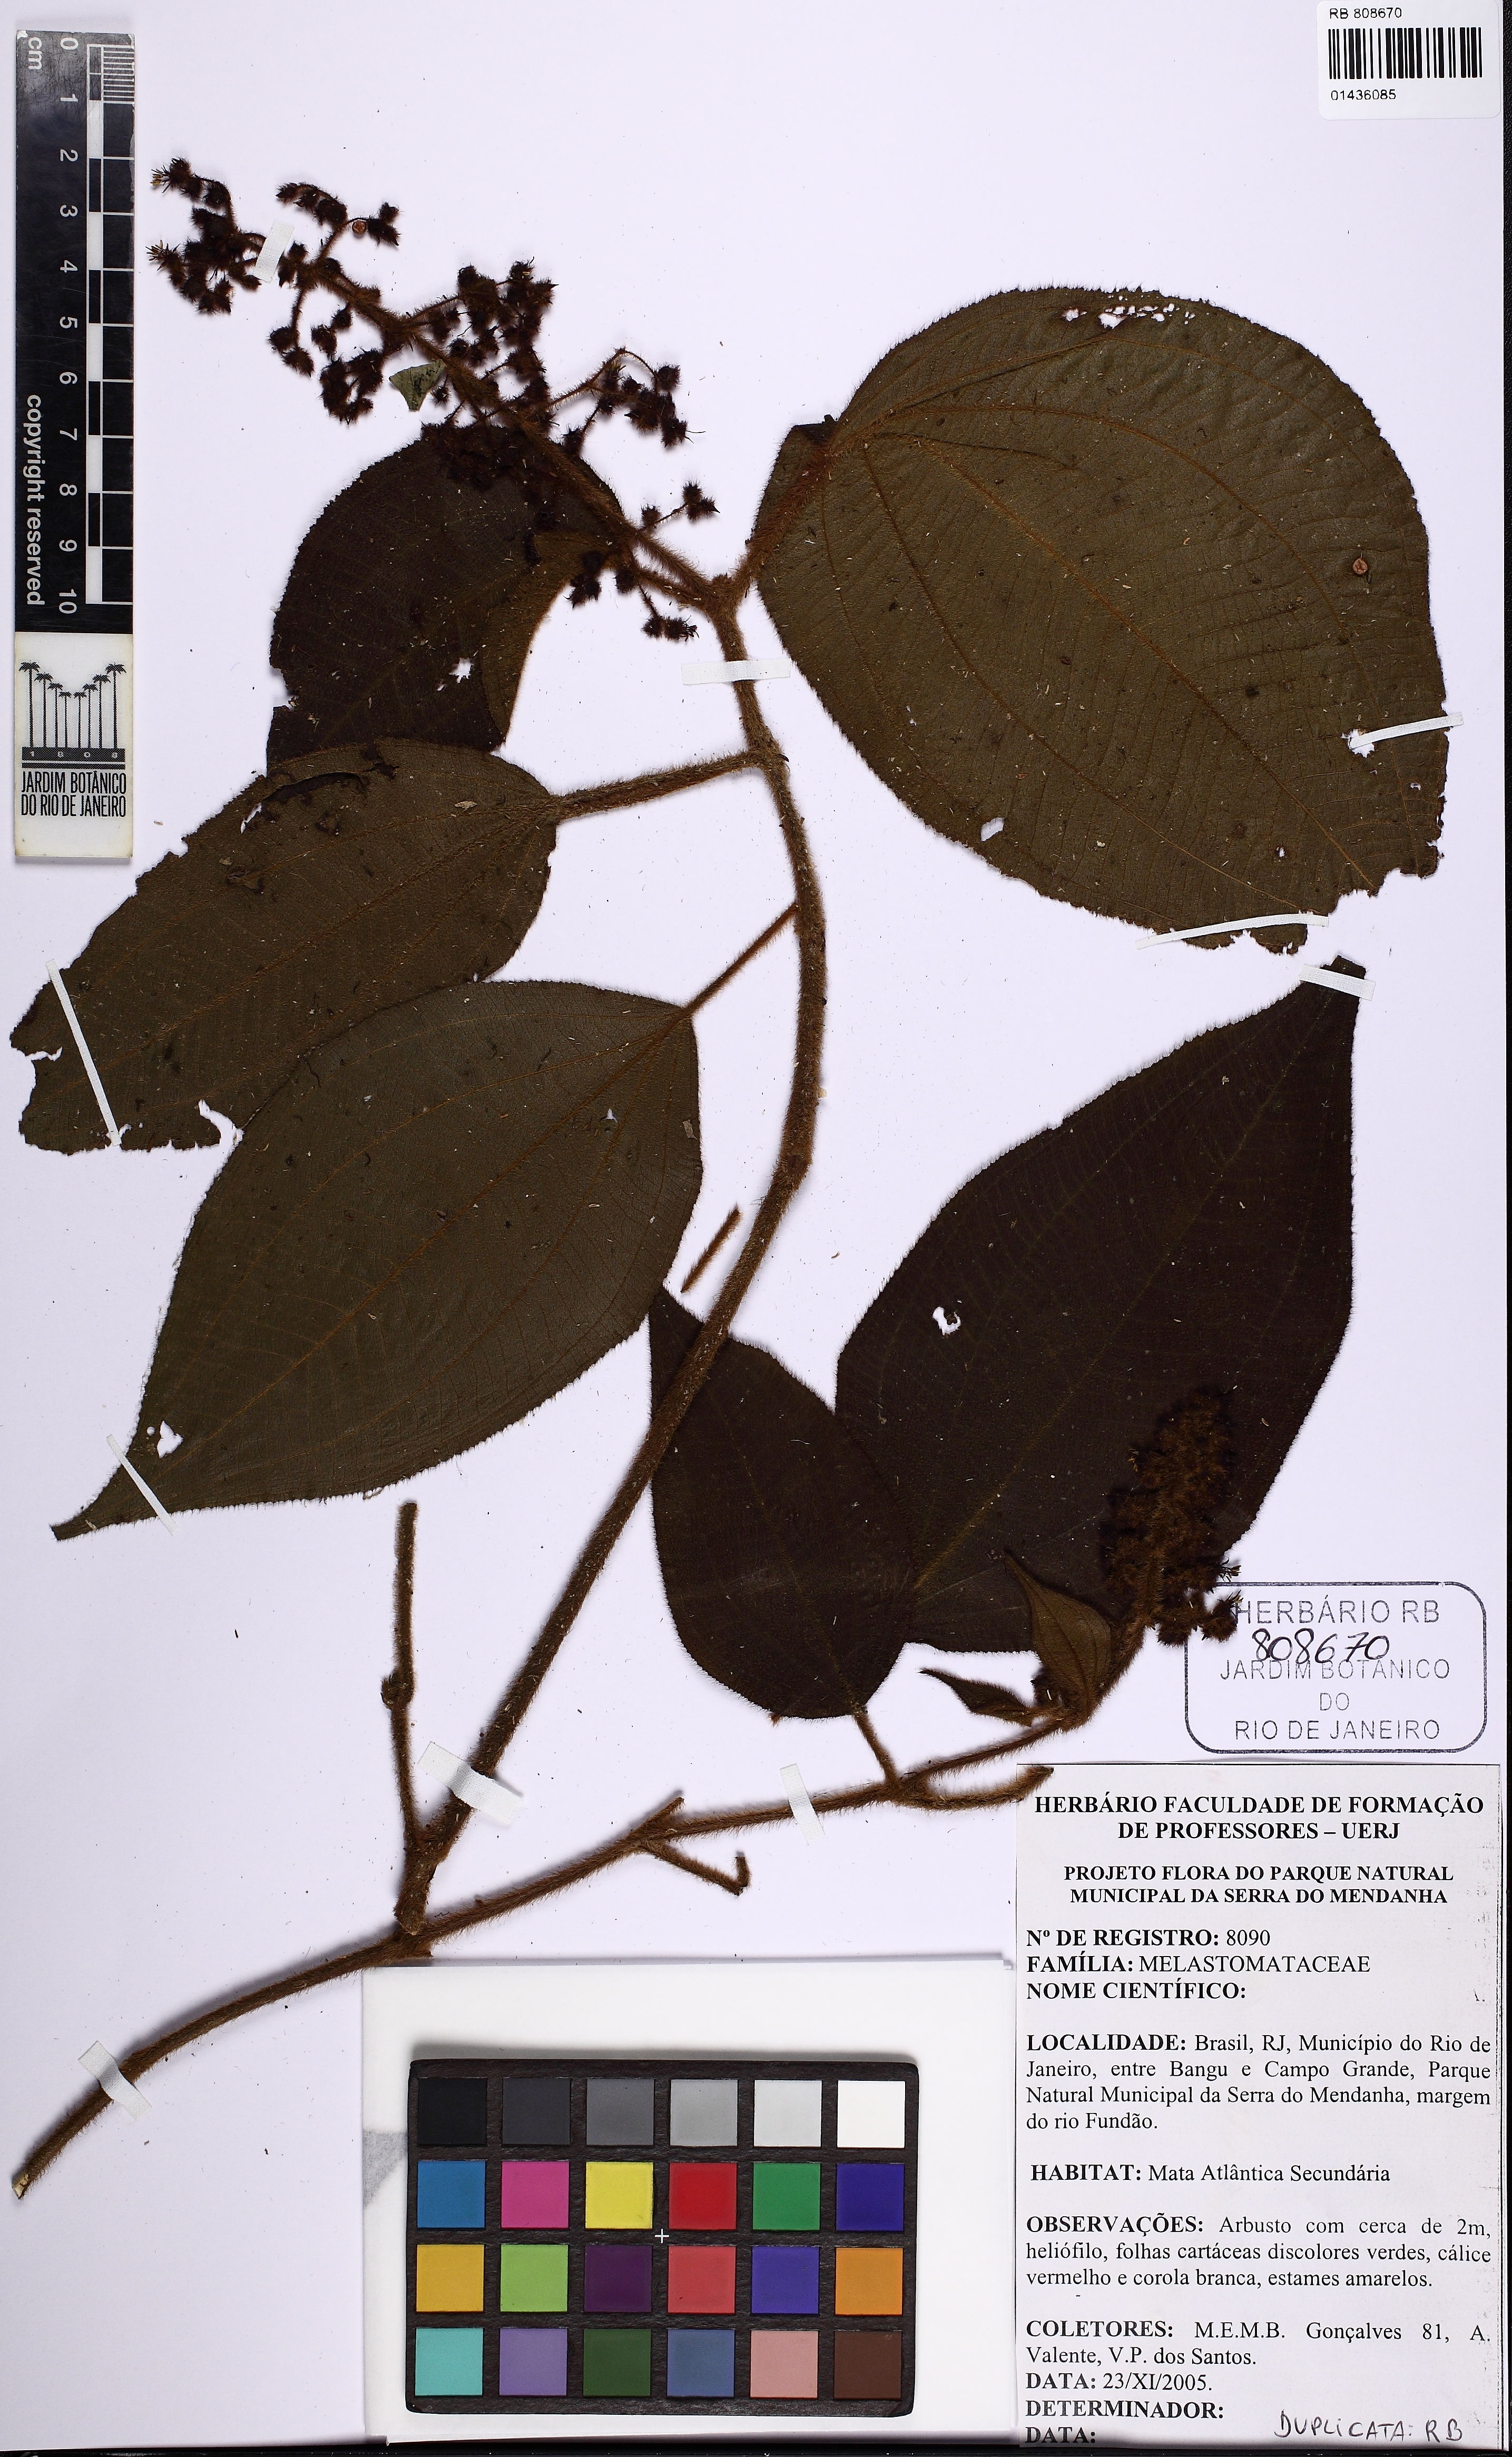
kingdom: Plantae
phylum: Tracheophyta
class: Magnoliopsida
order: Myrtales
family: Melastomataceae
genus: Miconia
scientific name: Miconia nervosa
